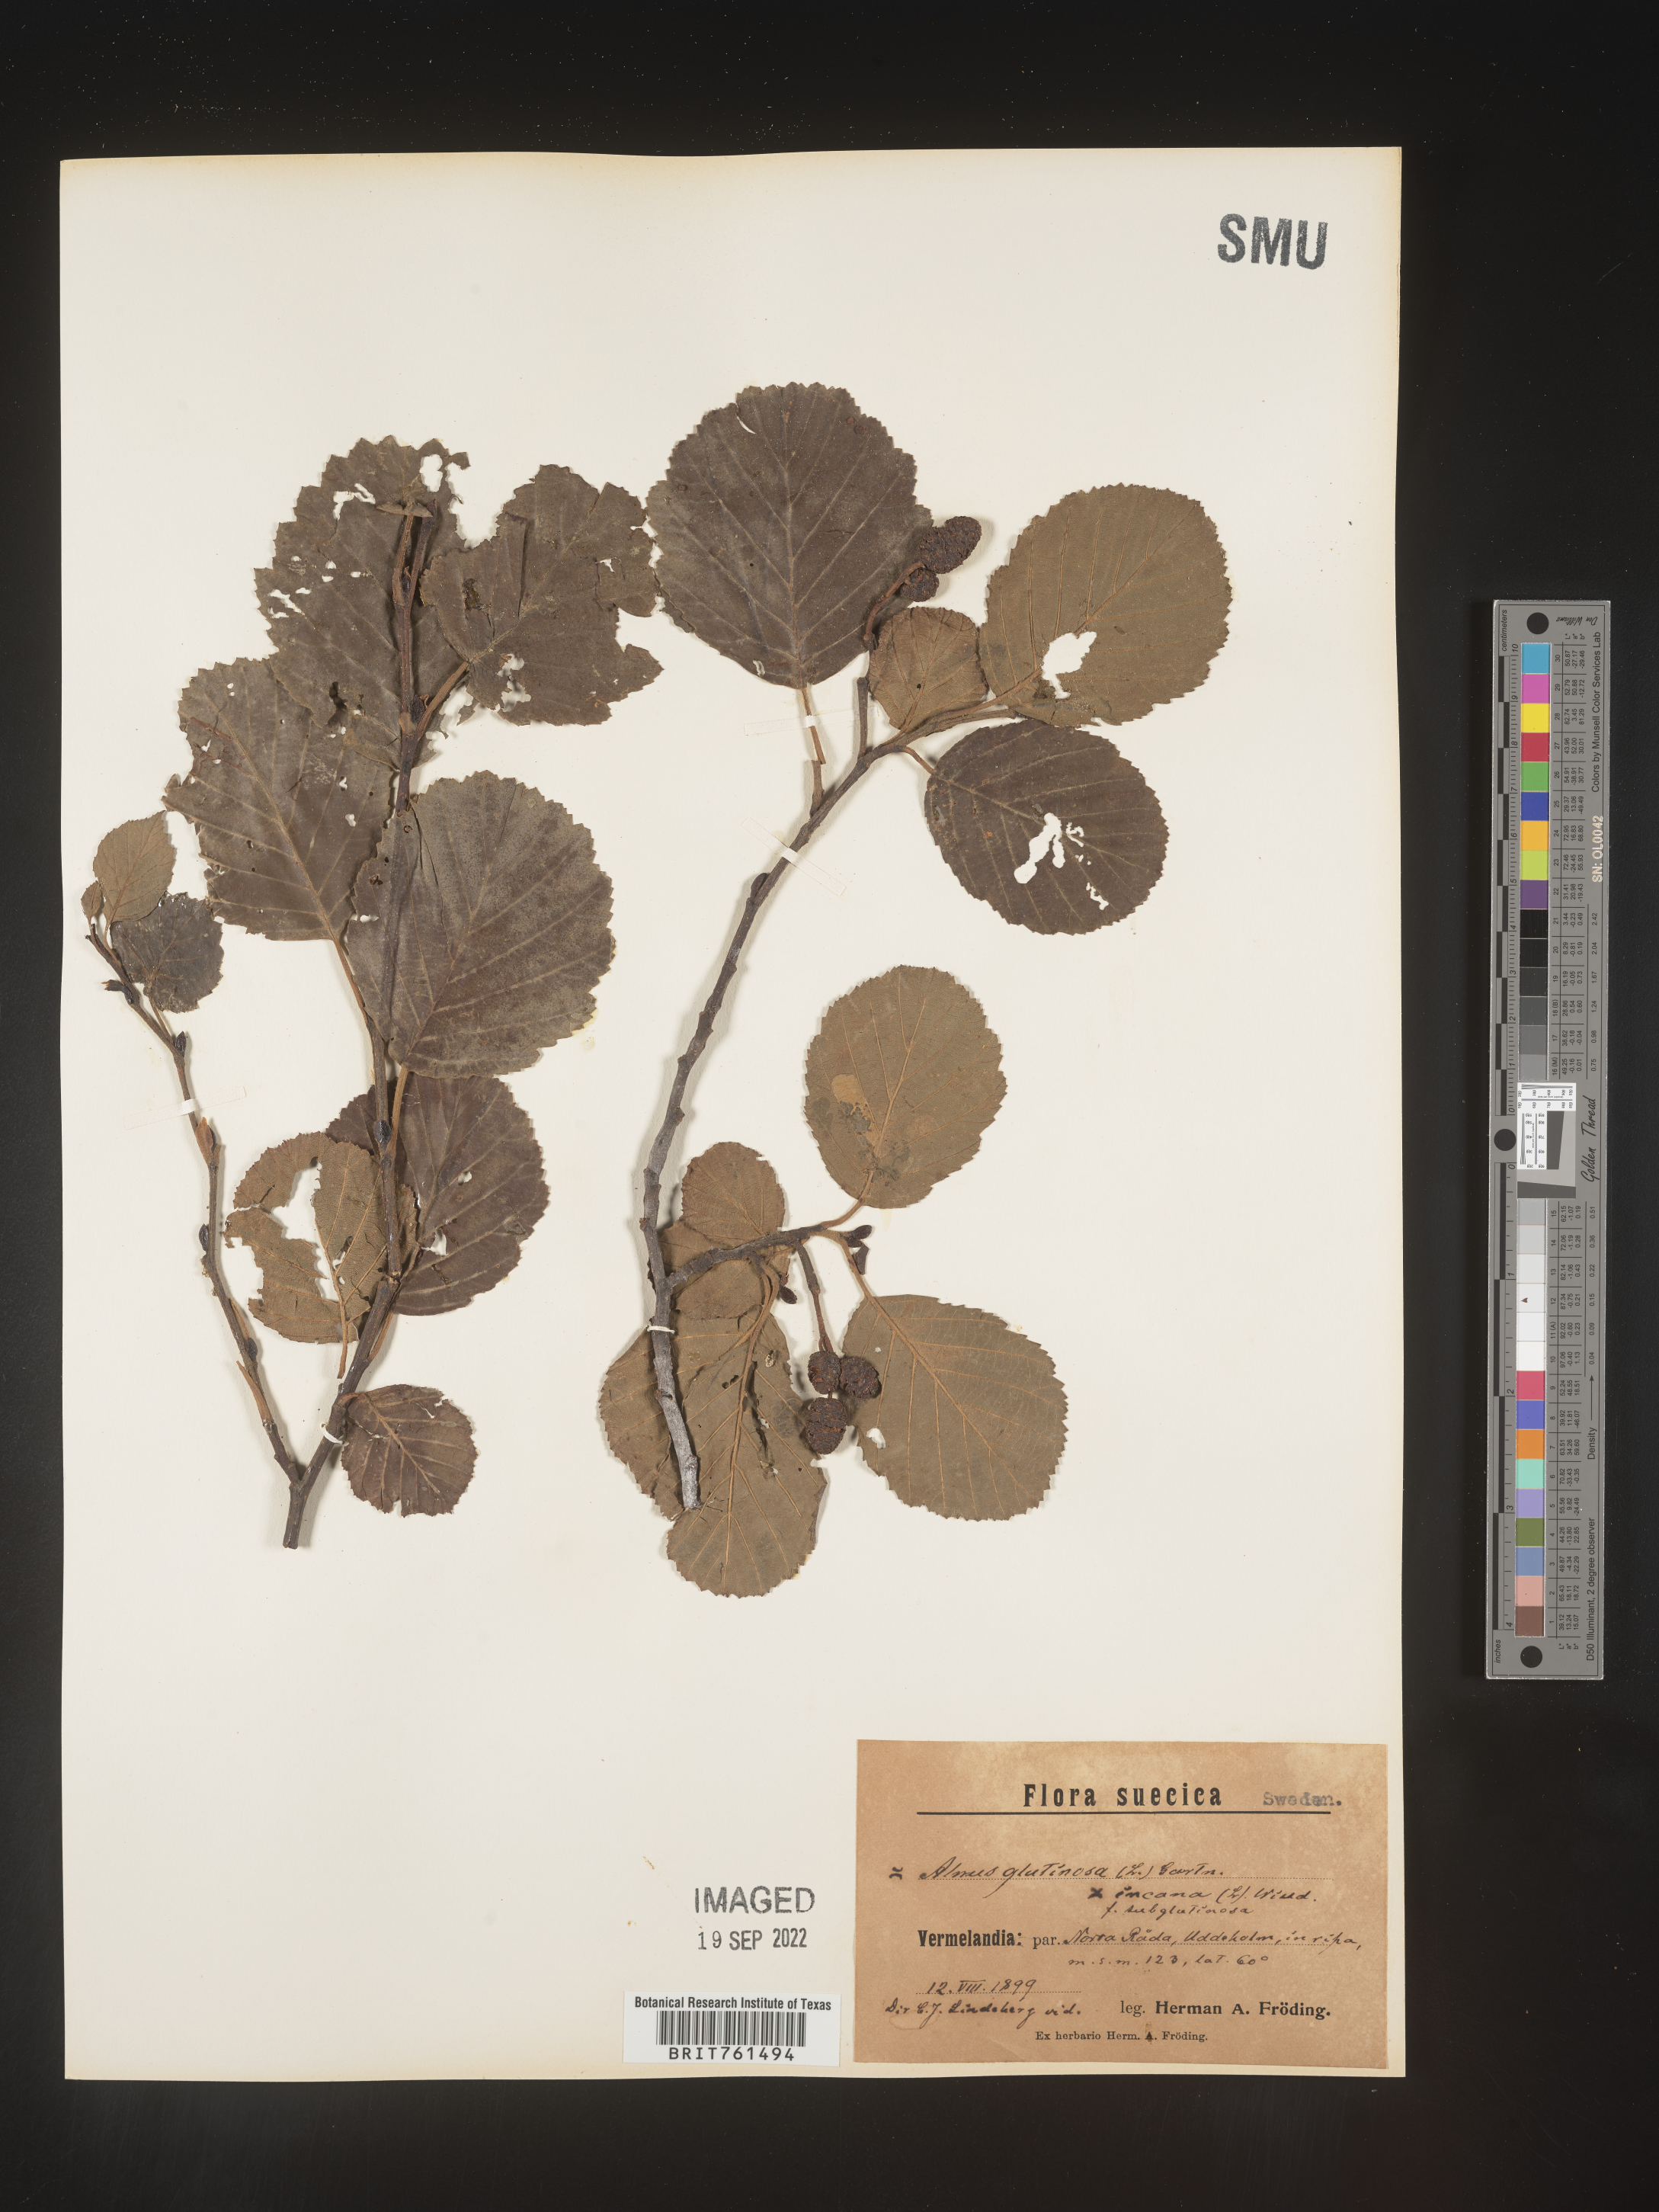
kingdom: Plantae
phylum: Tracheophyta
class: Magnoliopsida
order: Fagales
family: Betulaceae
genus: Alnus
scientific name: Alnus
